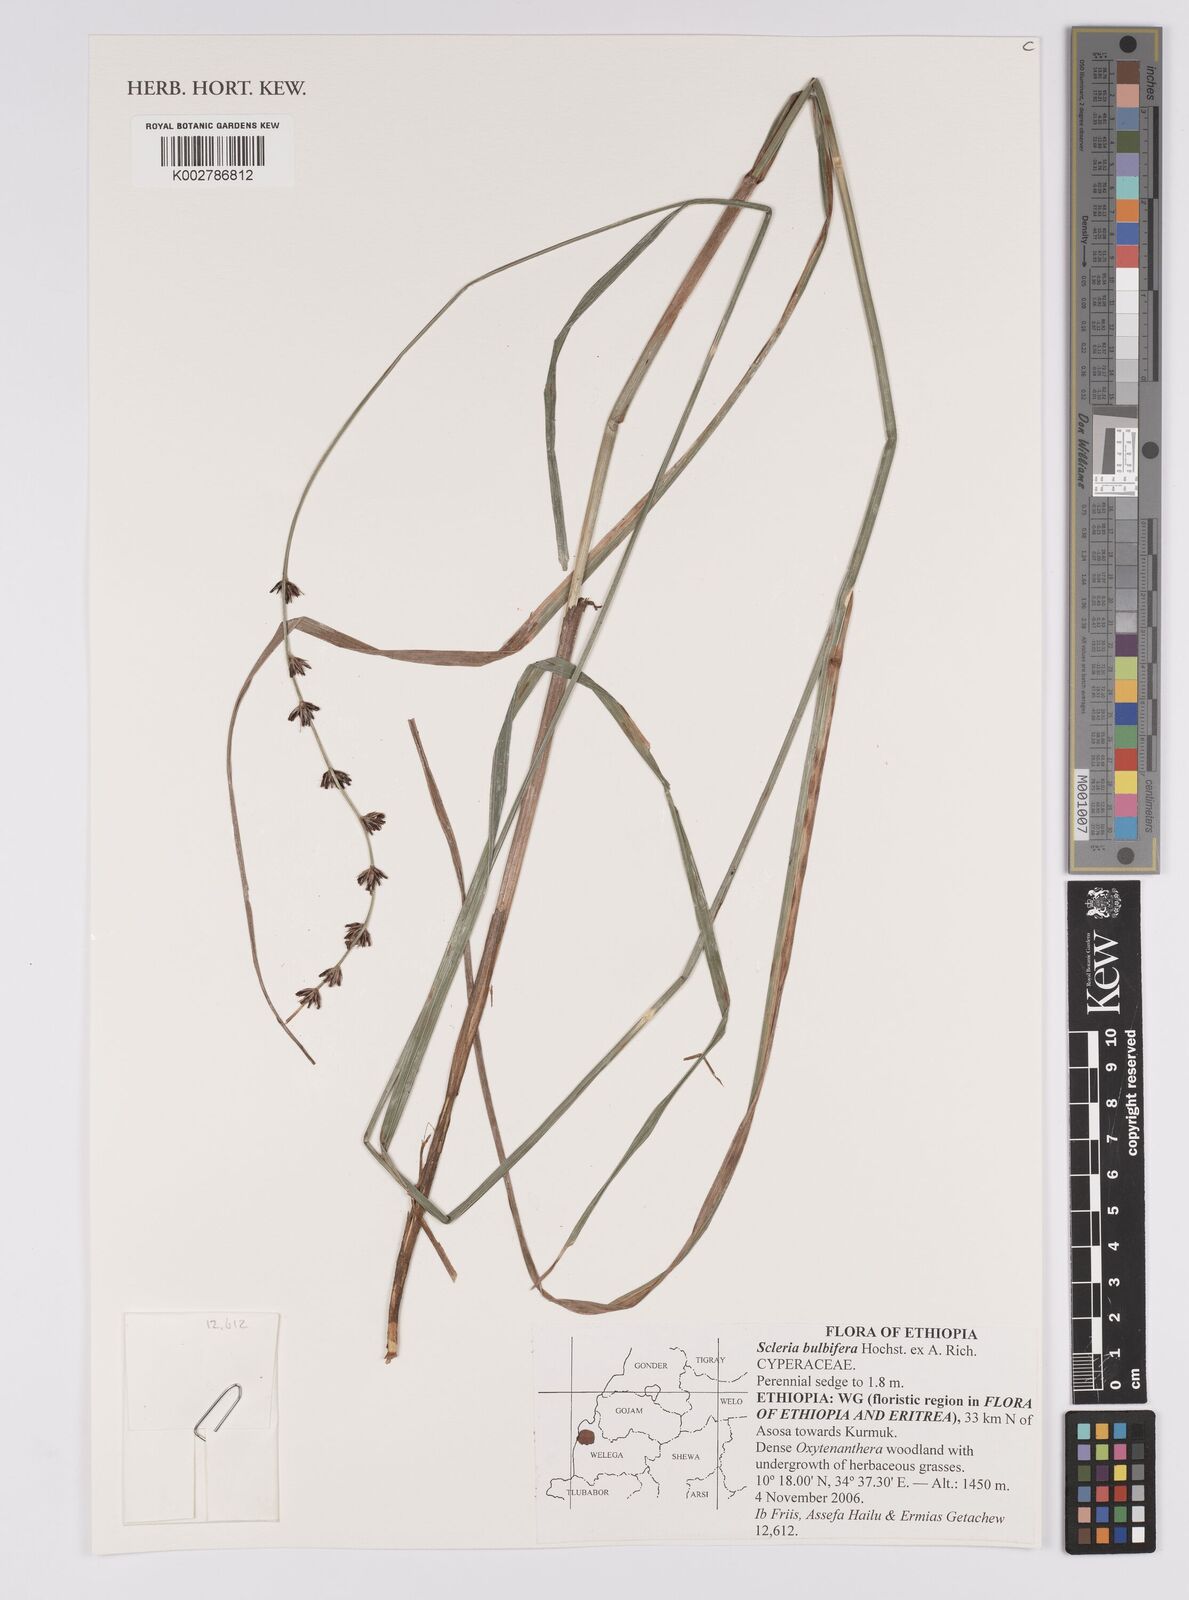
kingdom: Plantae
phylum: Tracheophyta
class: Liliopsida
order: Poales
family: Cyperaceae
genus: Scleria
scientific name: Scleria bulbifera
